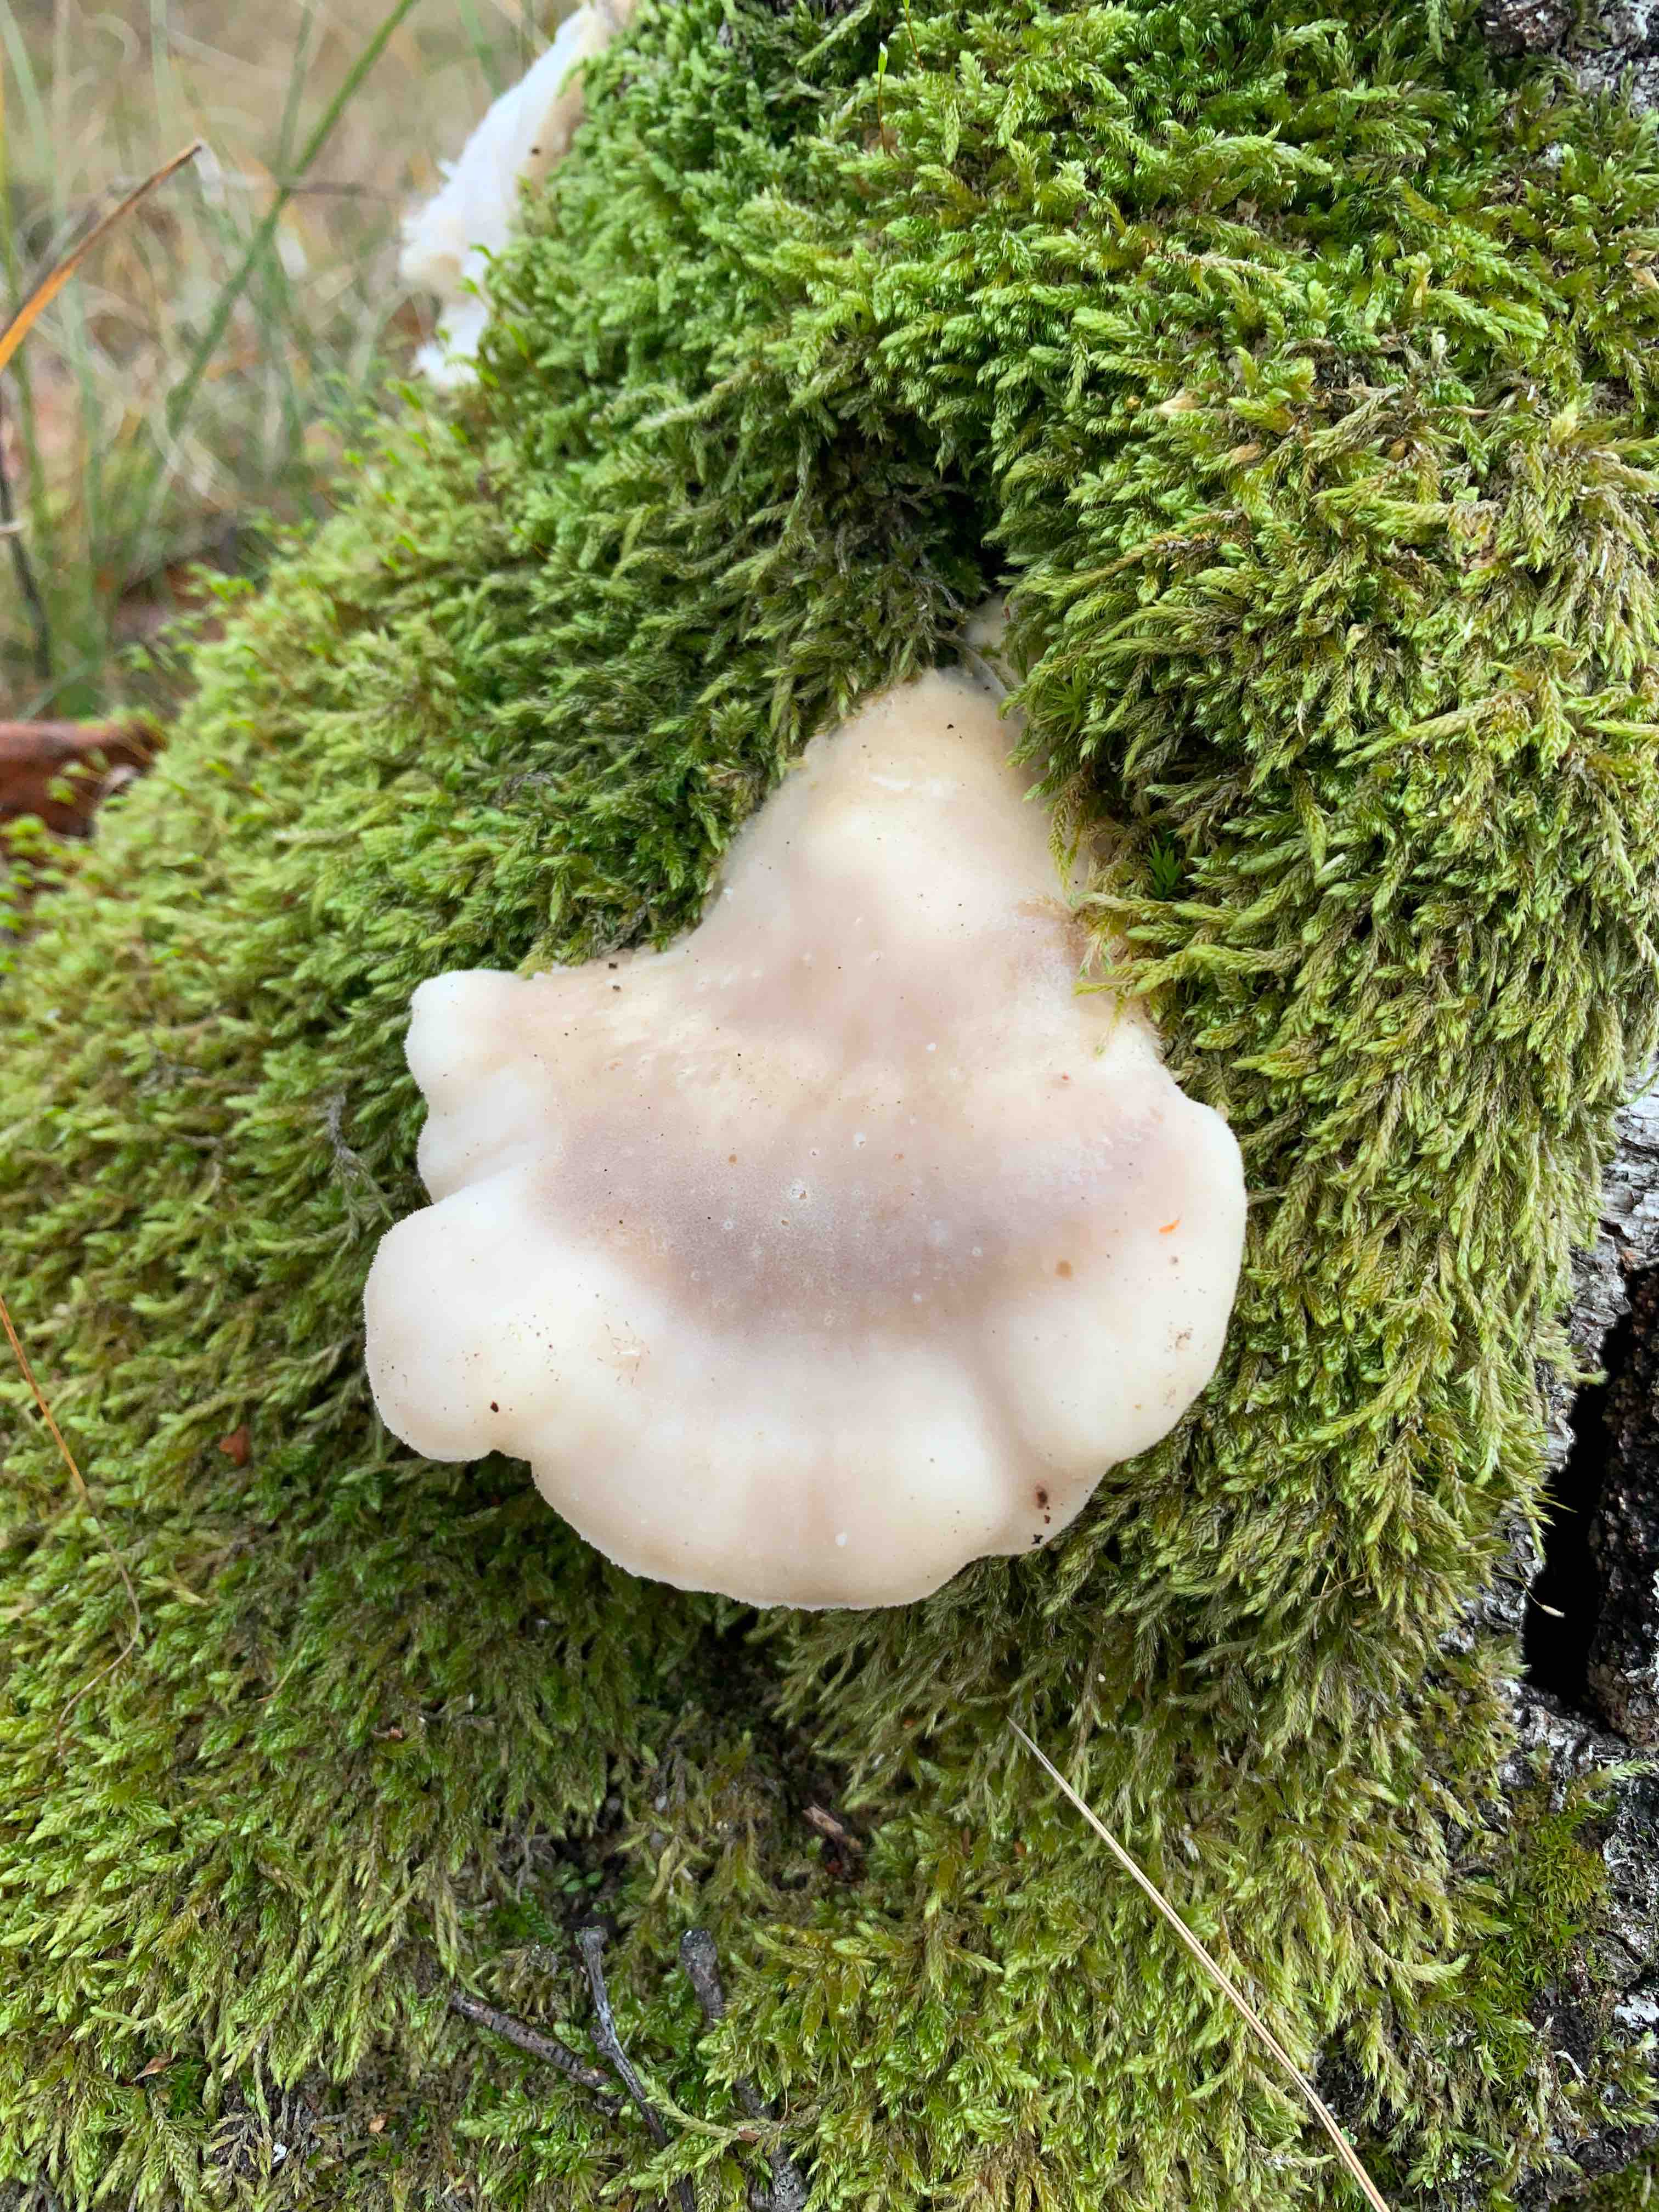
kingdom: Fungi
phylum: Basidiomycota
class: Agaricomycetes
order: Polyporales
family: Incrustoporiaceae
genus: Tyromyces
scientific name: Tyromyces chioneus
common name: stor blødporesvamp
